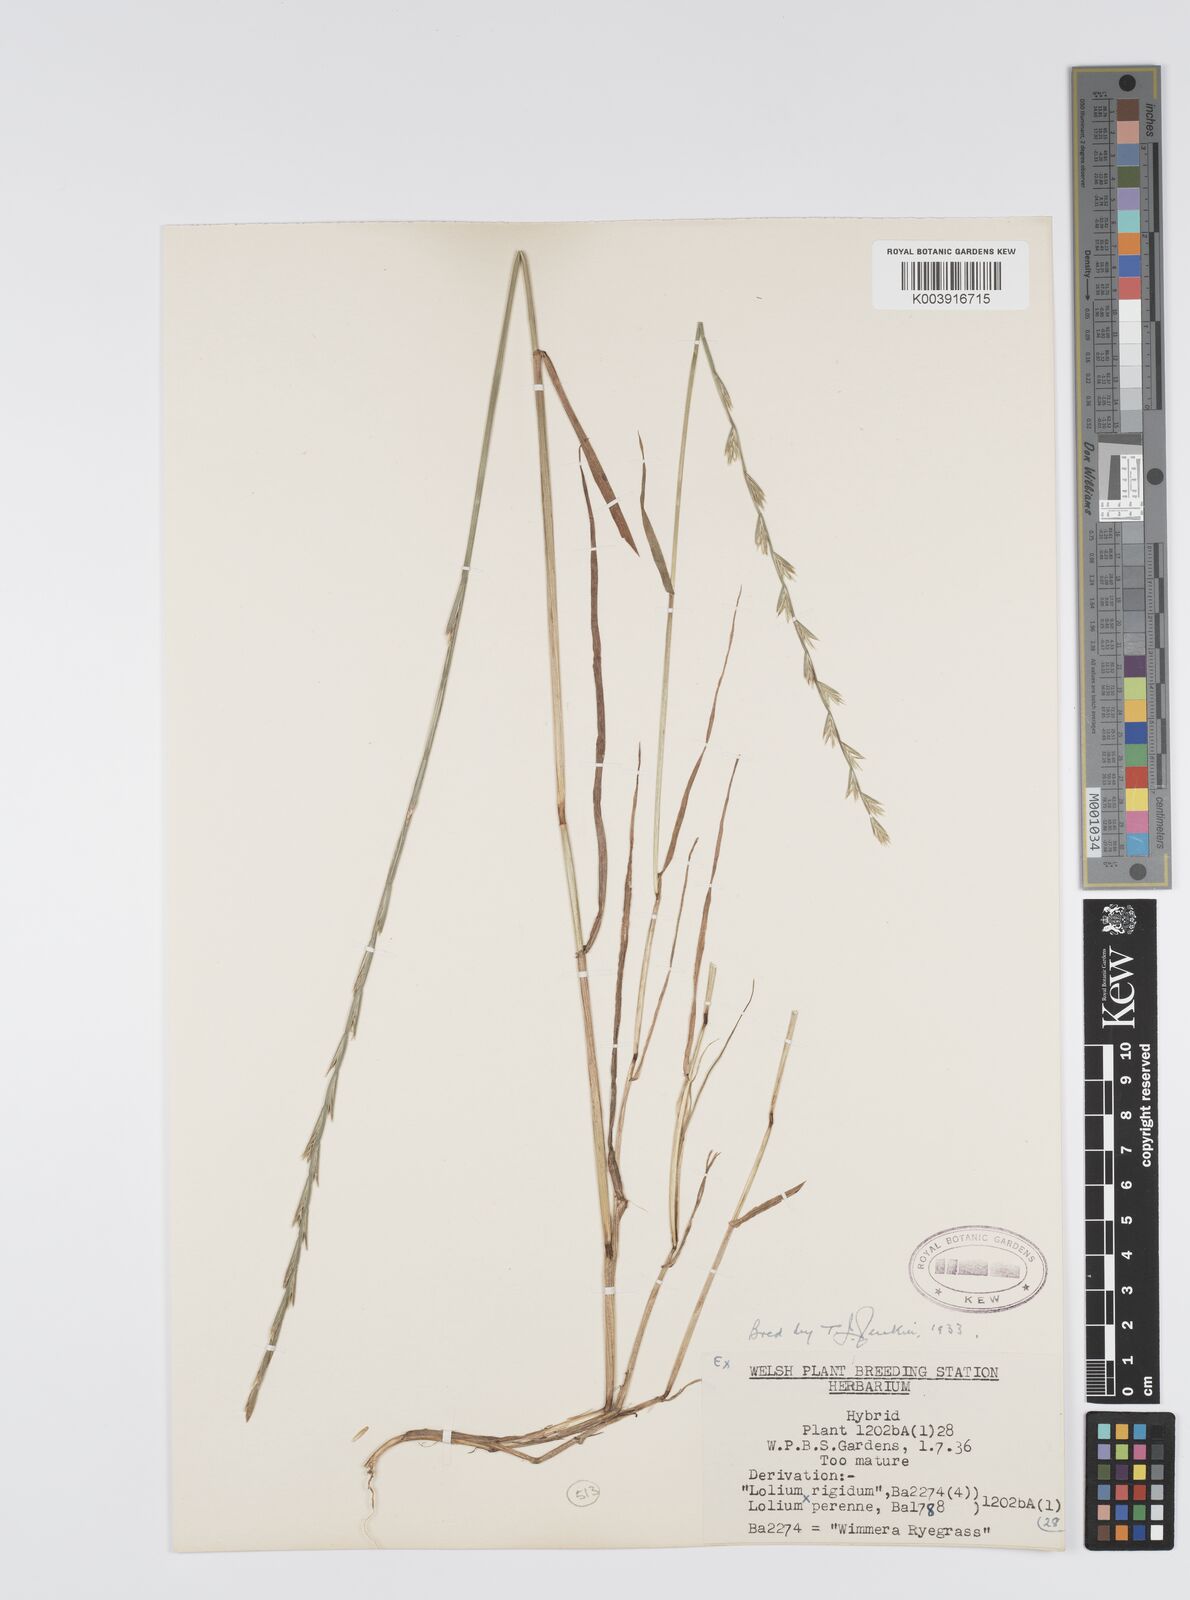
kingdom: Plantae
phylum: Tracheophyta
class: Liliopsida
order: Poales
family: Poaceae
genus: Lolium
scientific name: Lolium perenne
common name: Perennial ryegrass
